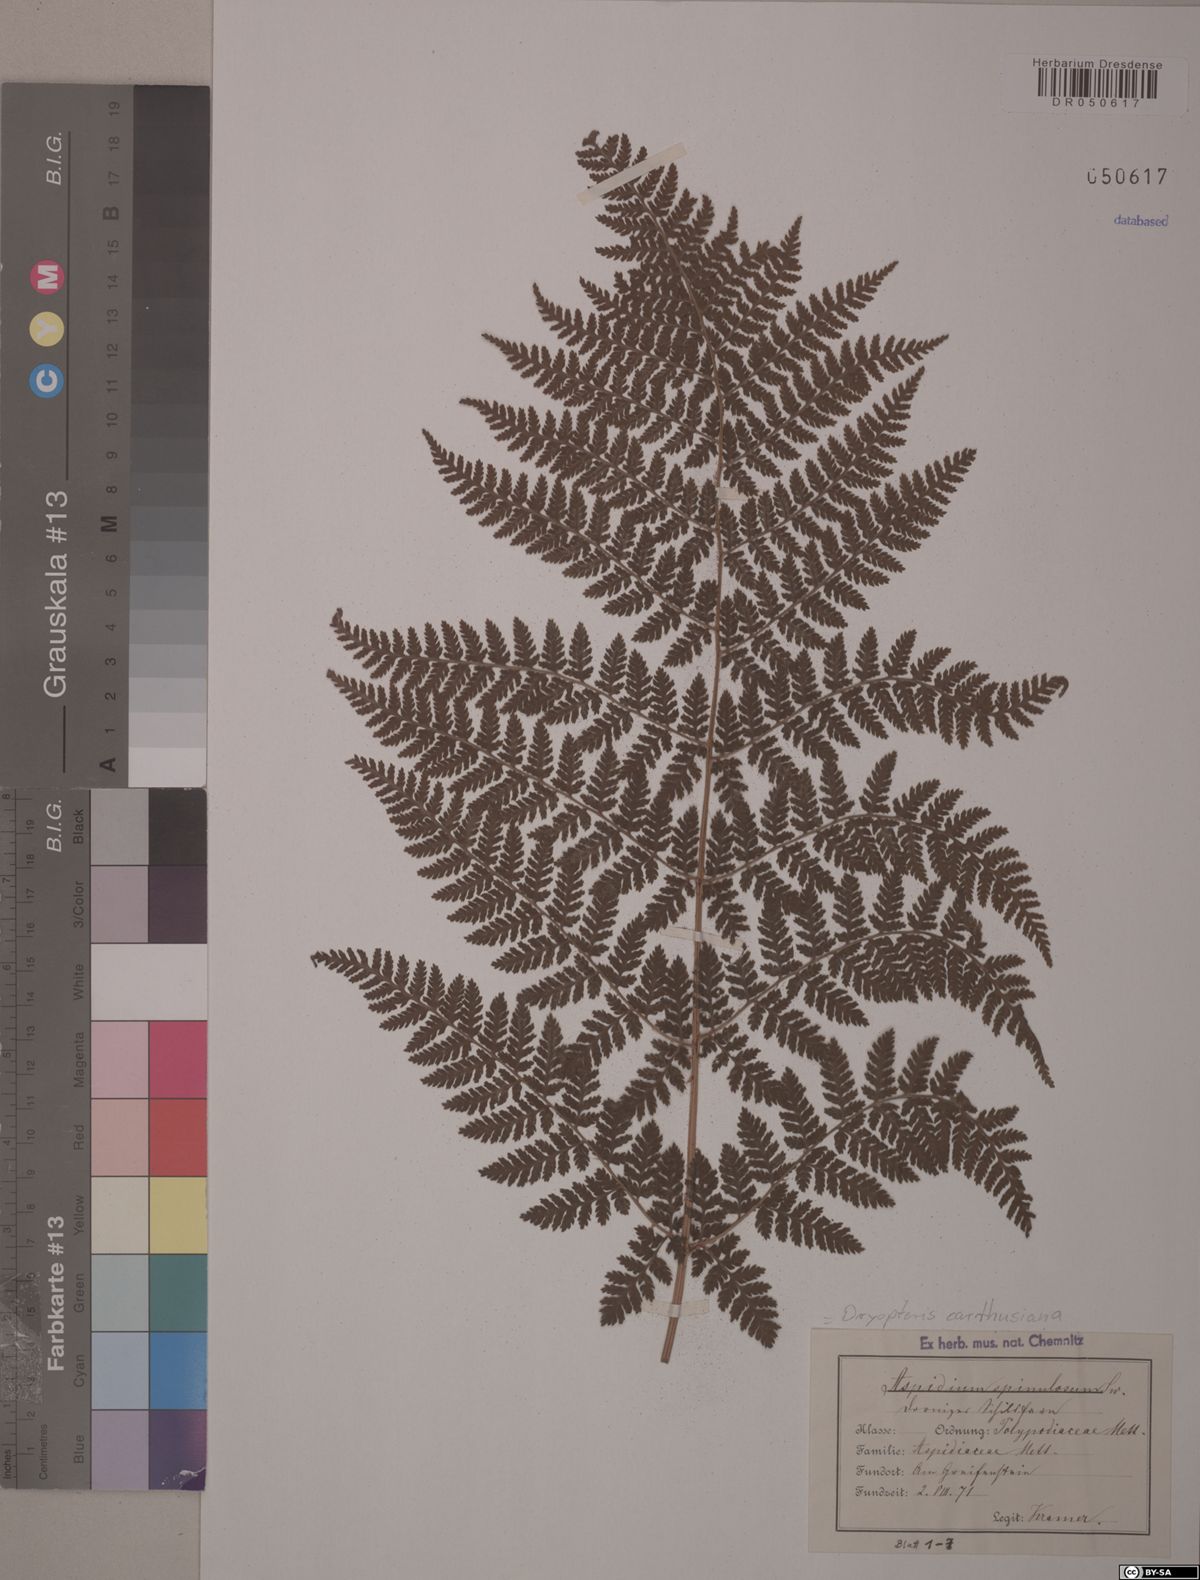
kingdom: Plantae
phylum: Tracheophyta
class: Polypodiopsida
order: Polypodiales
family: Dryopteridaceae
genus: Dryopteris
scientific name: Dryopteris carthusiana
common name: Narrow buckler-fern
